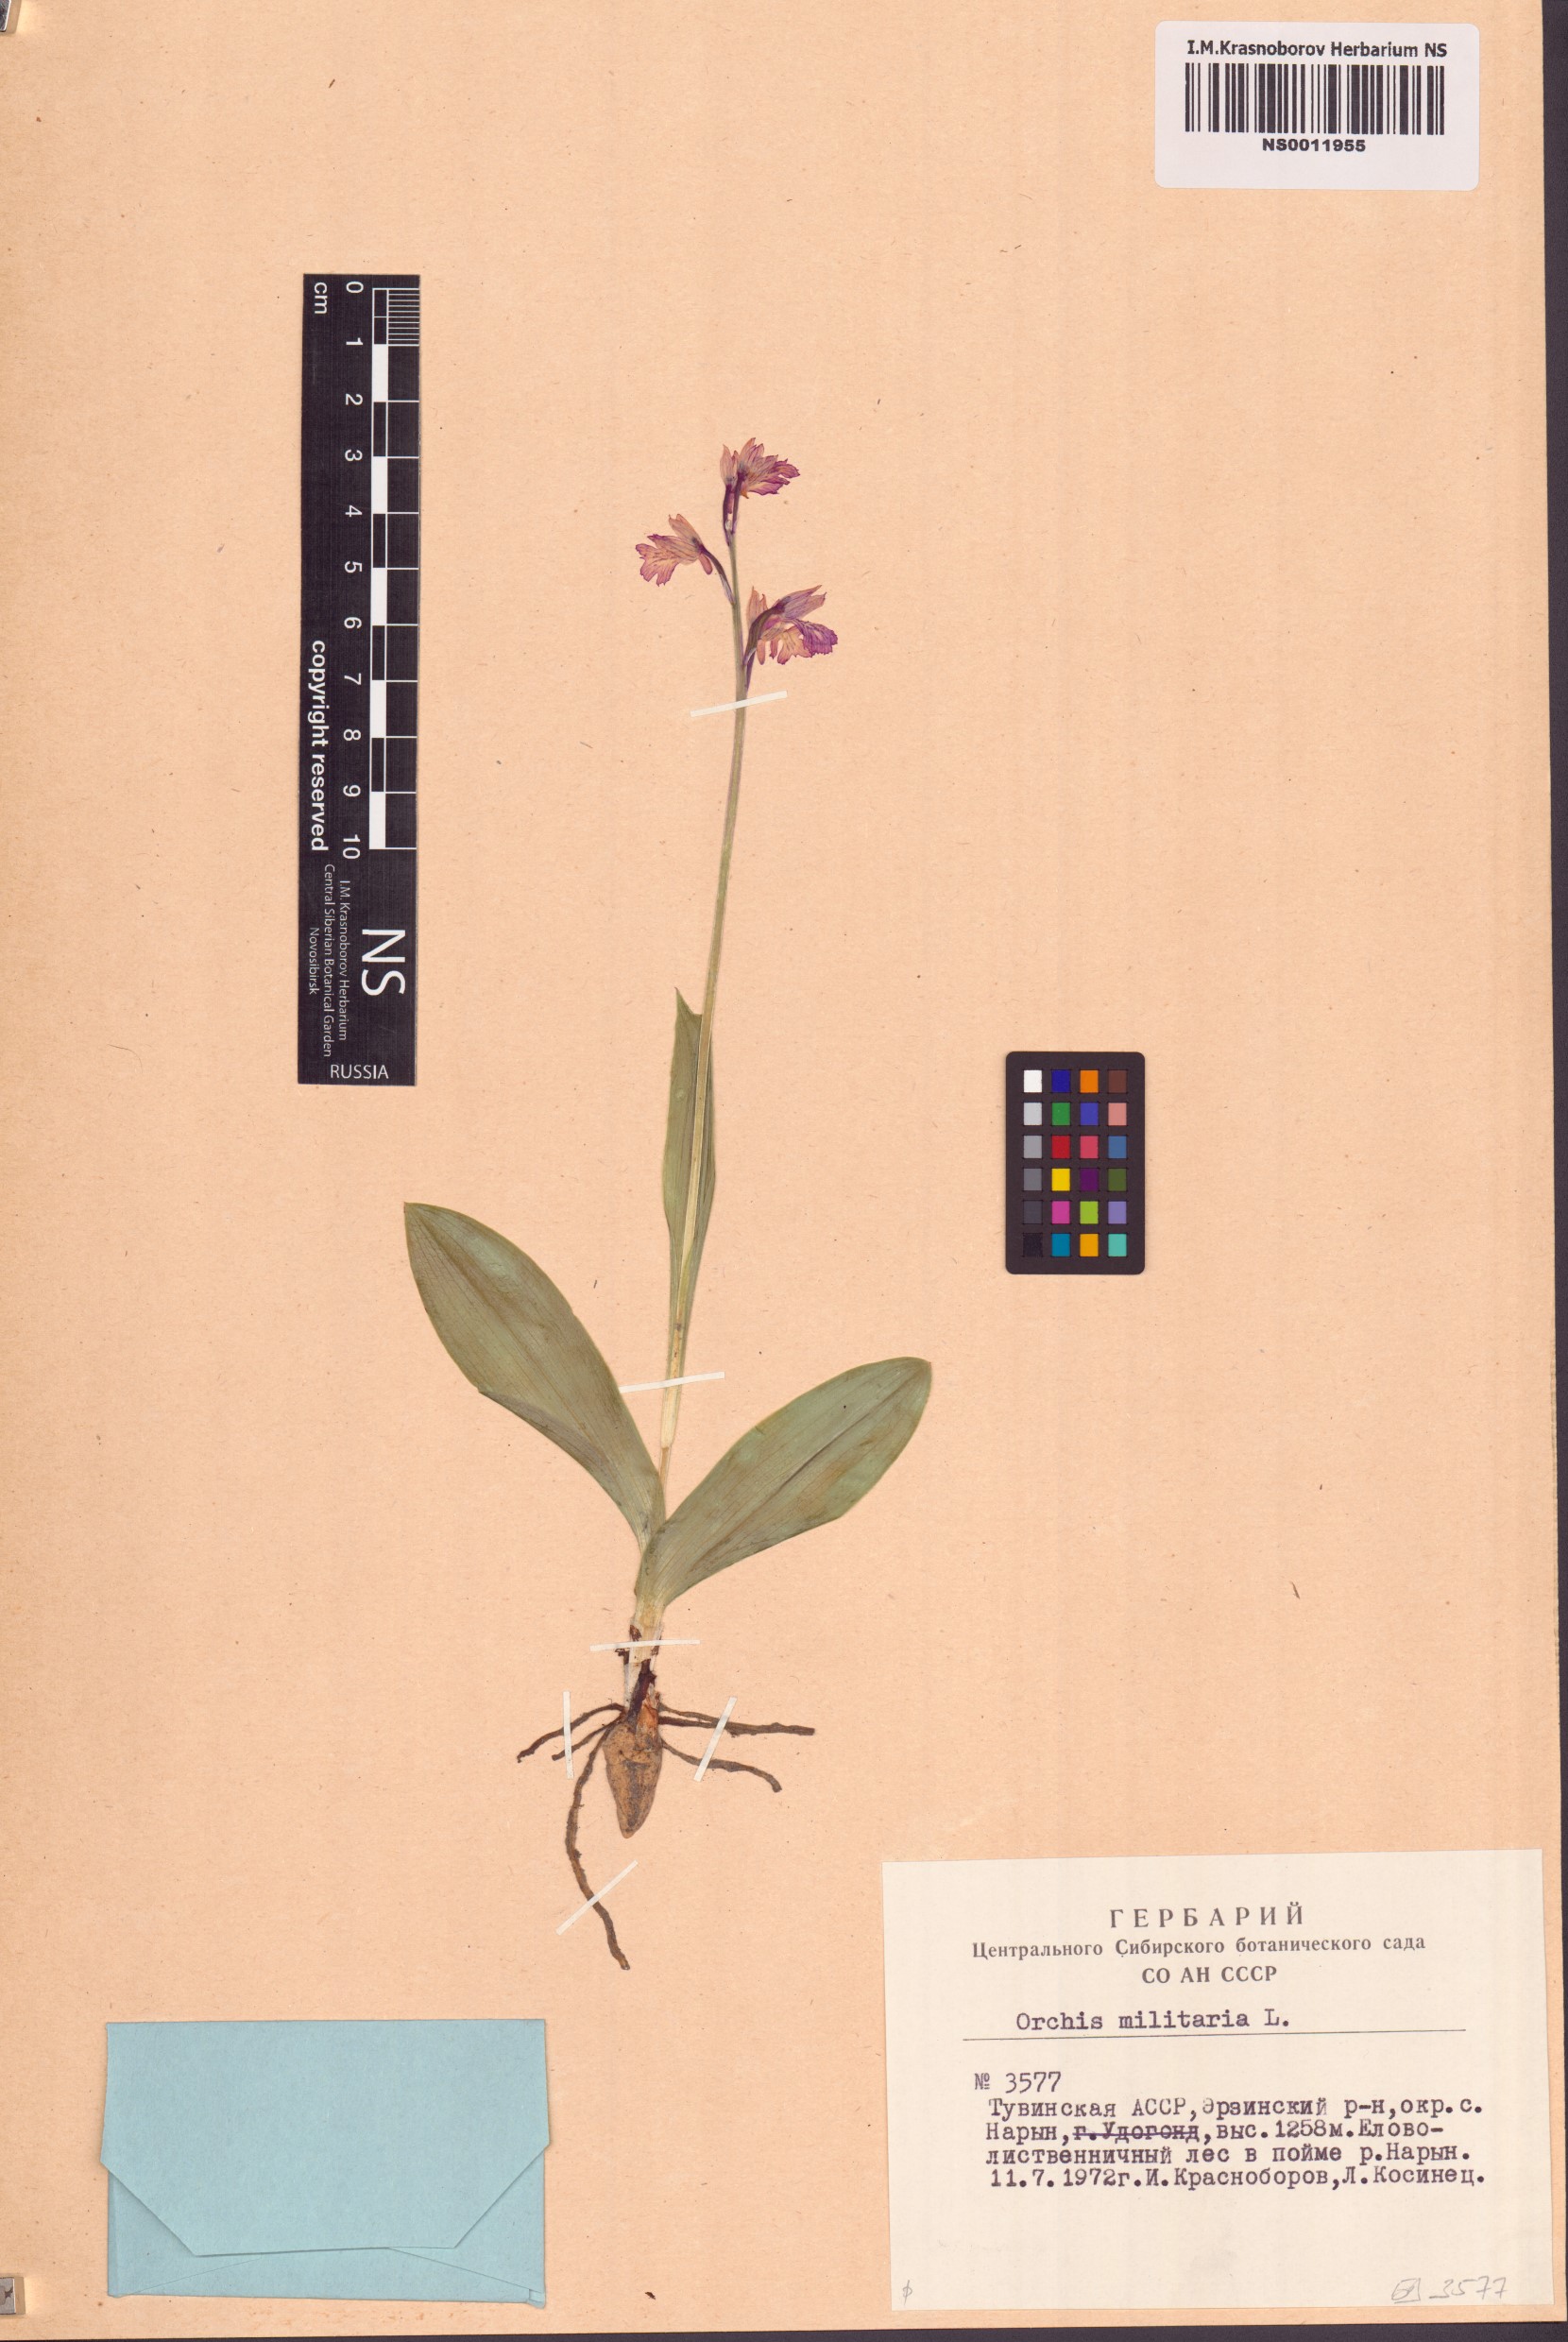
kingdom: Plantae
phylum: Tracheophyta
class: Liliopsida
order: Asparagales
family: Orchidaceae
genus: Orchis
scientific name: Orchis militaris
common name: Military orchid
